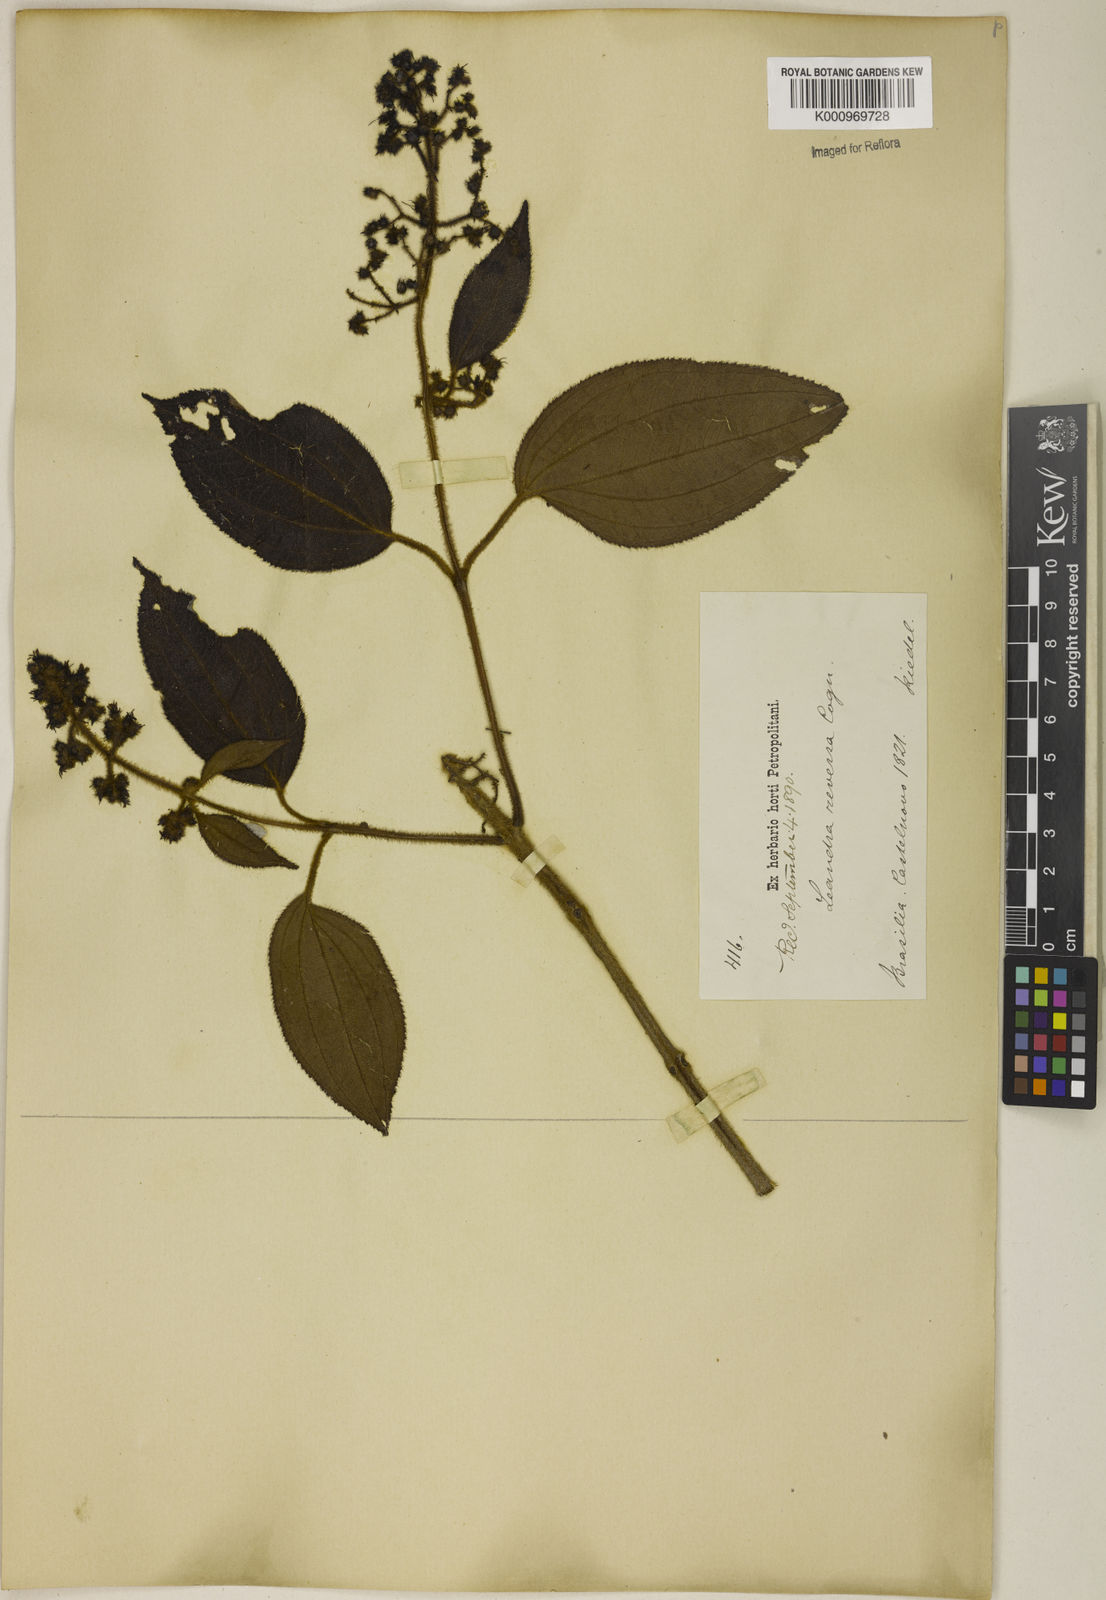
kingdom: Plantae
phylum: Tracheophyta
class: Magnoliopsida
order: Myrtales
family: Melastomataceae
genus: Miconia
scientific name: Miconia reversa
